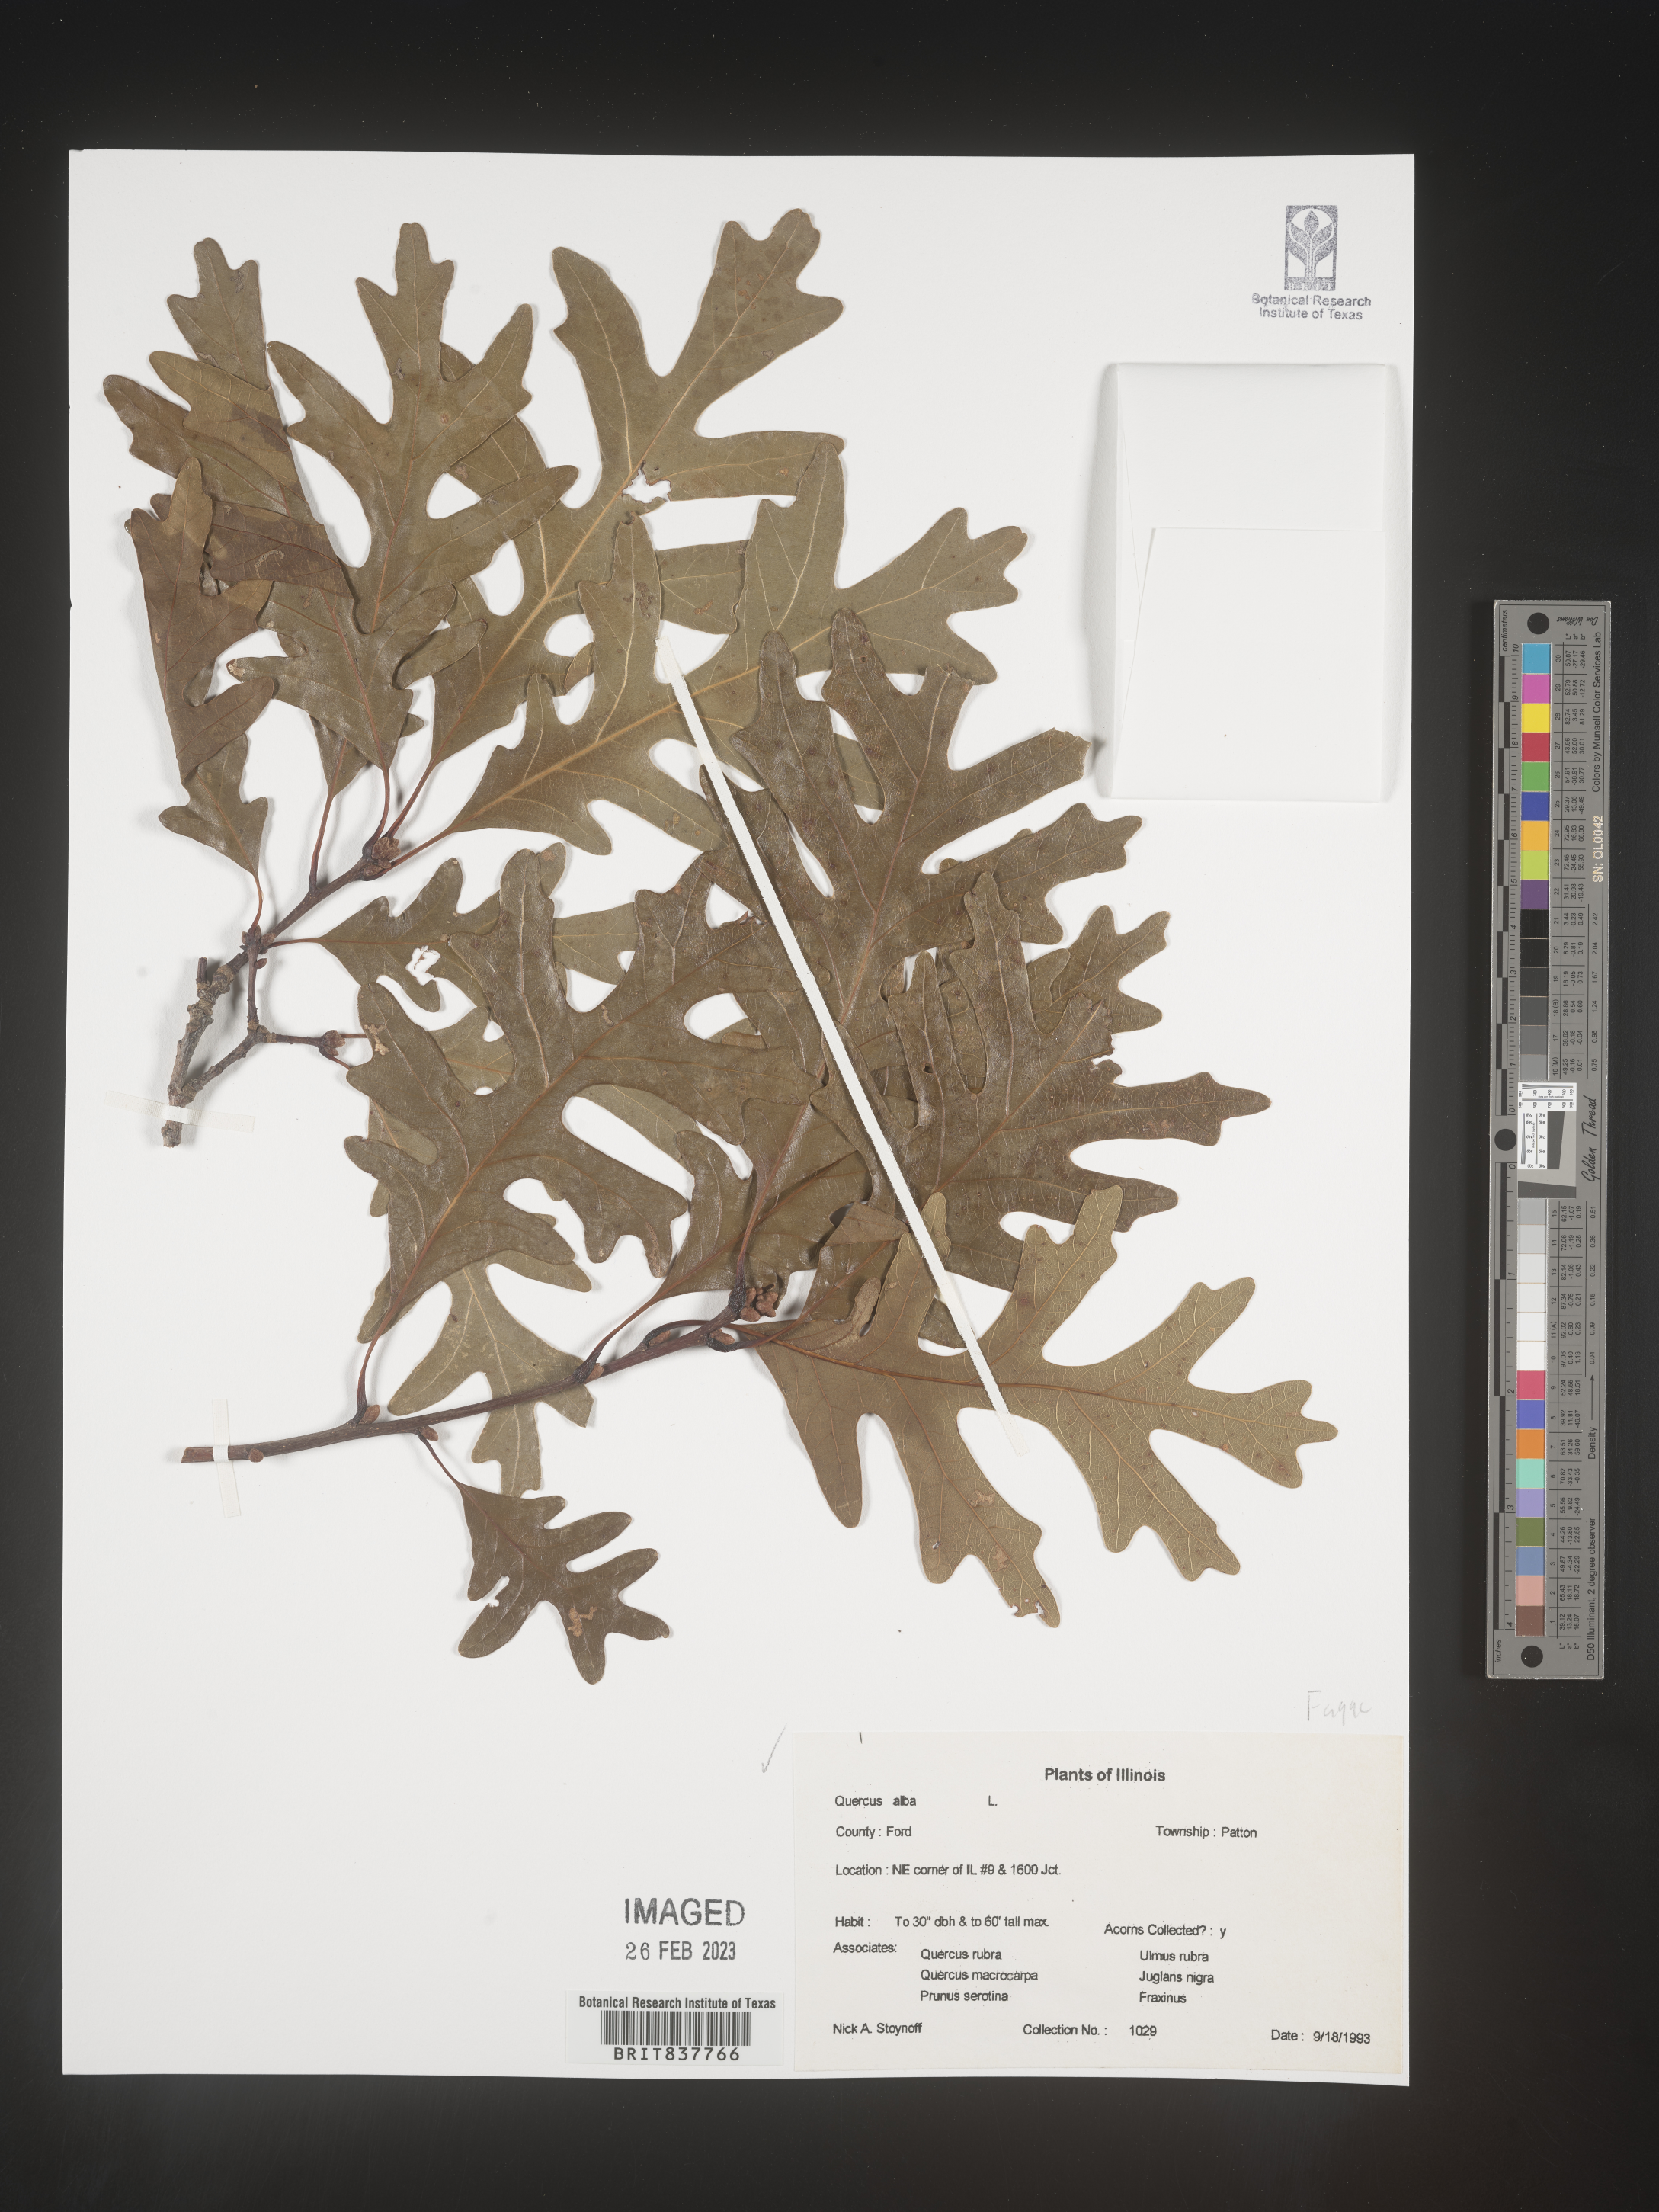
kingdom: Plantae
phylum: Tracheophyta
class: Magnoliopsida
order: Fagales
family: Fagaceae
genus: Quercus
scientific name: Quercus alba
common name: White oak
